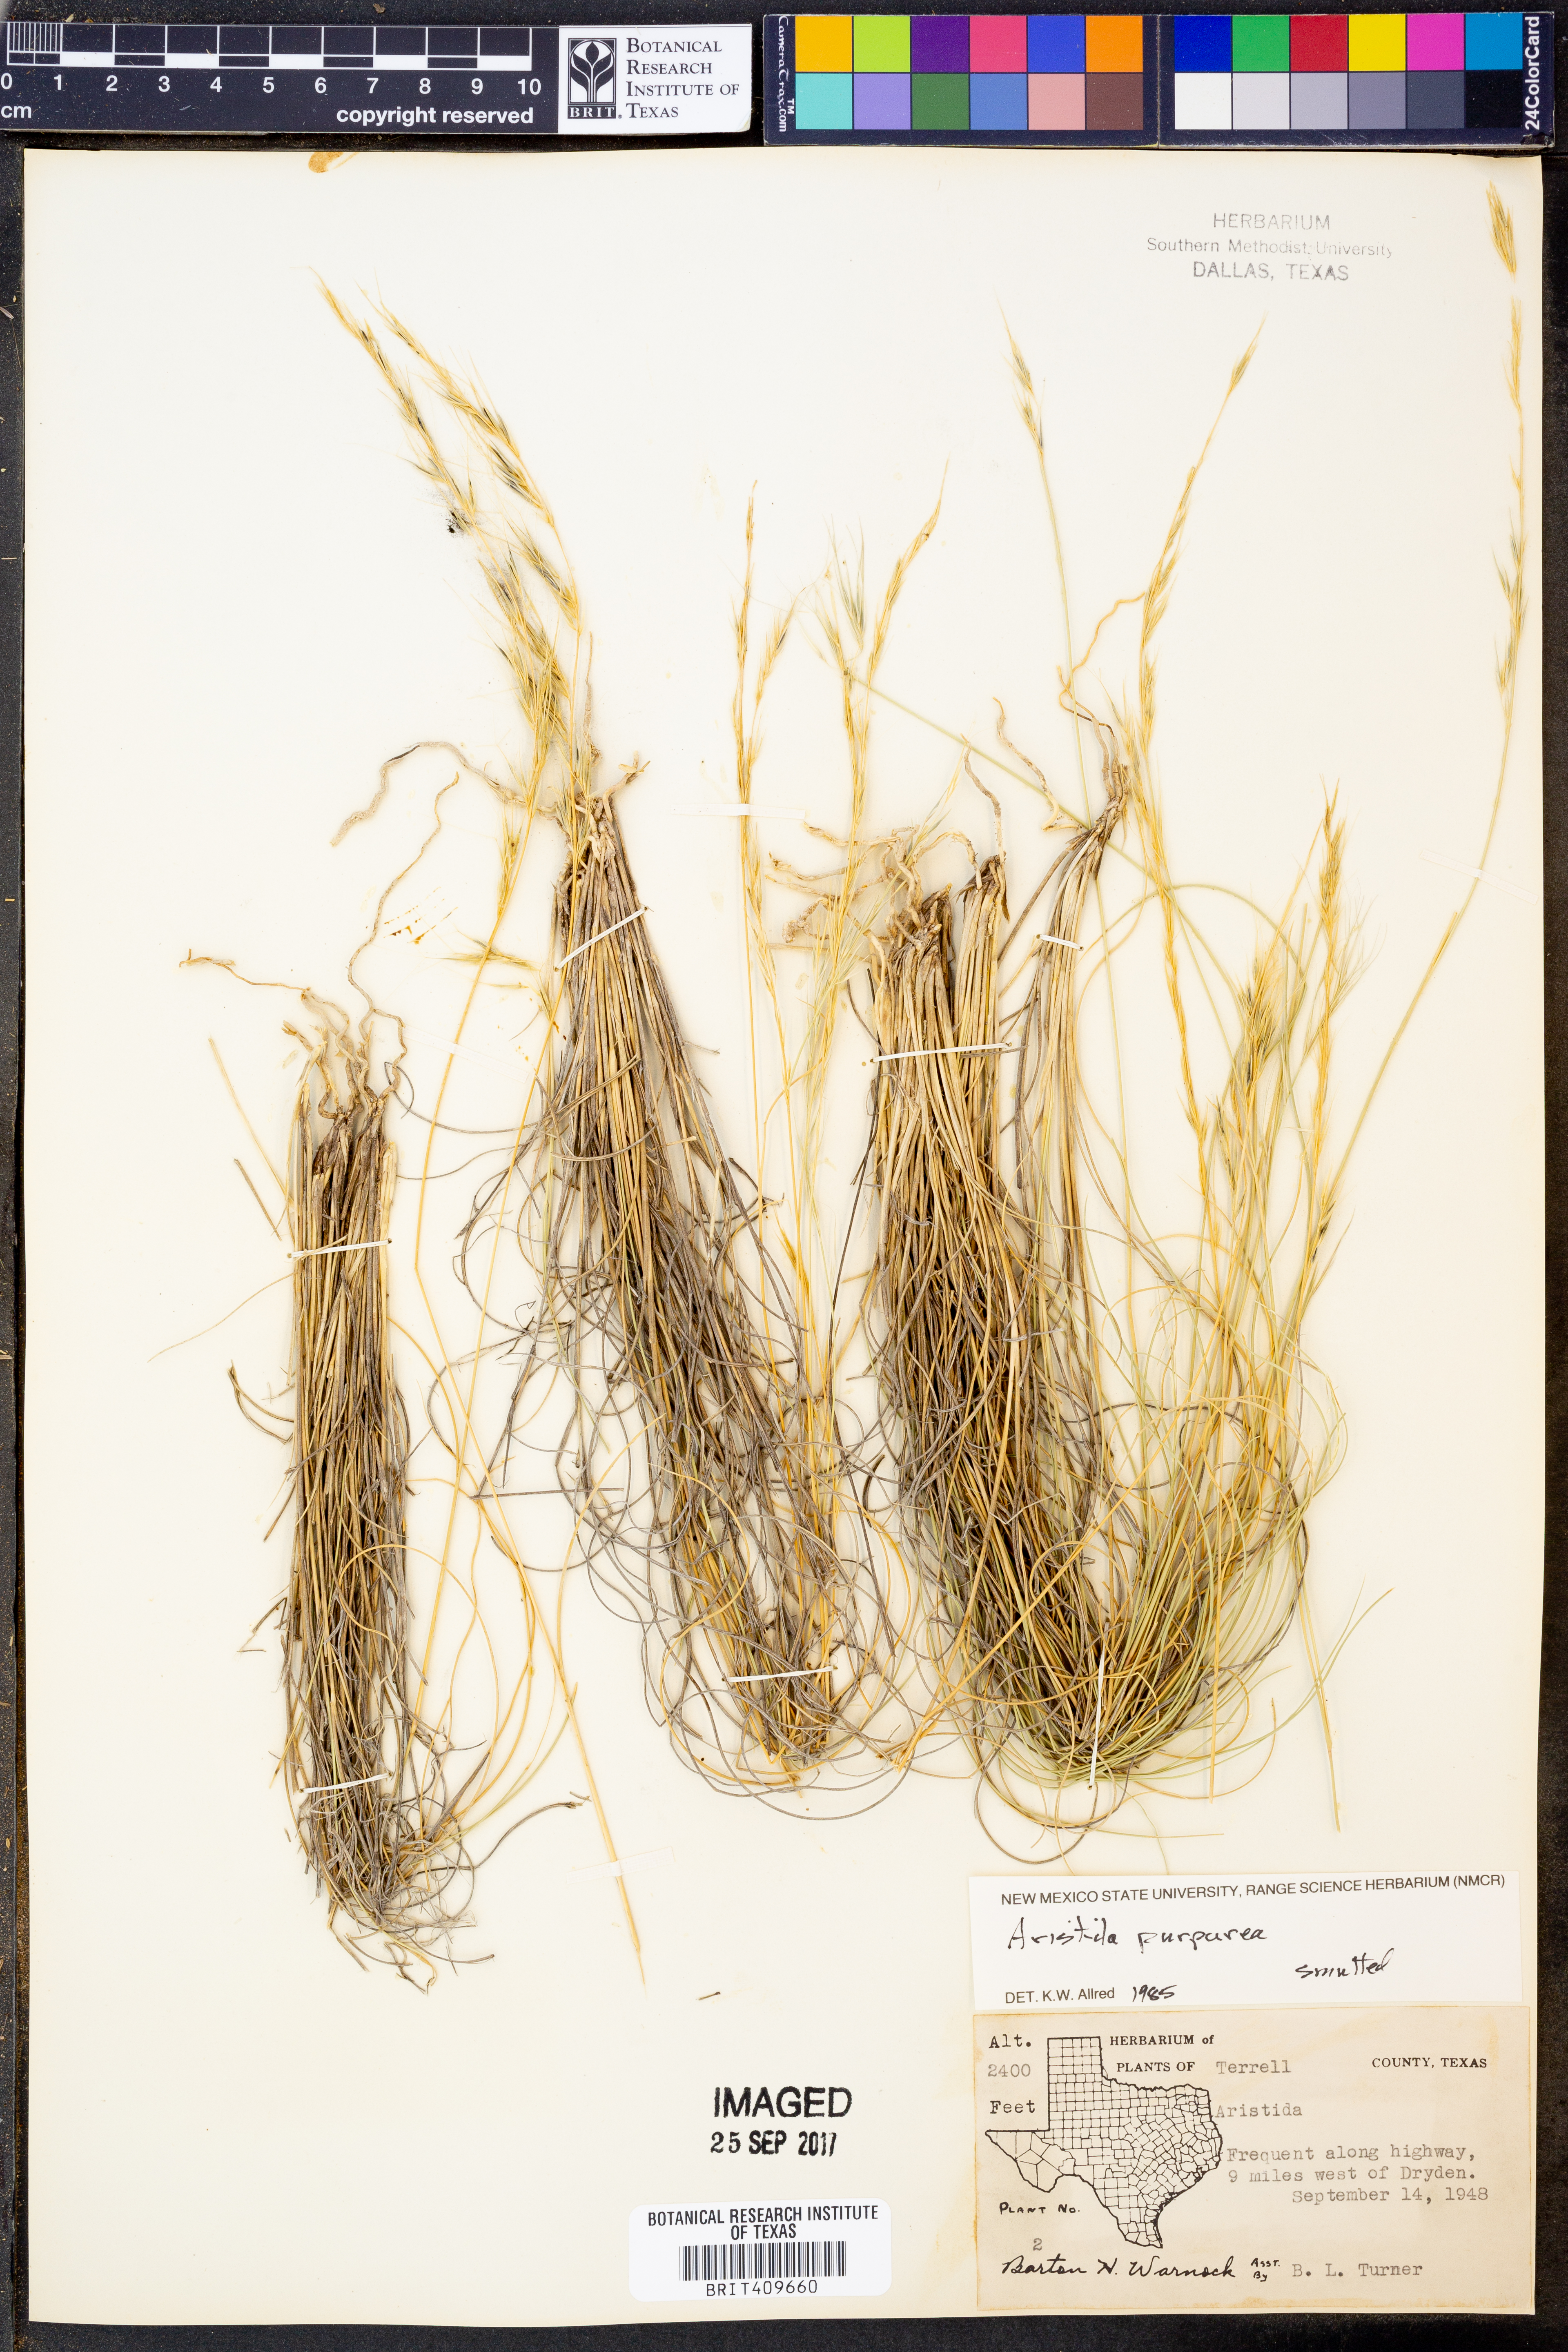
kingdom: Plantae
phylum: Tracheophyta
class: Liliopsida
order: Poales
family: Poaceae
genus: Aristida
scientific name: Aristida purpurea
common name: Purple threeawn
